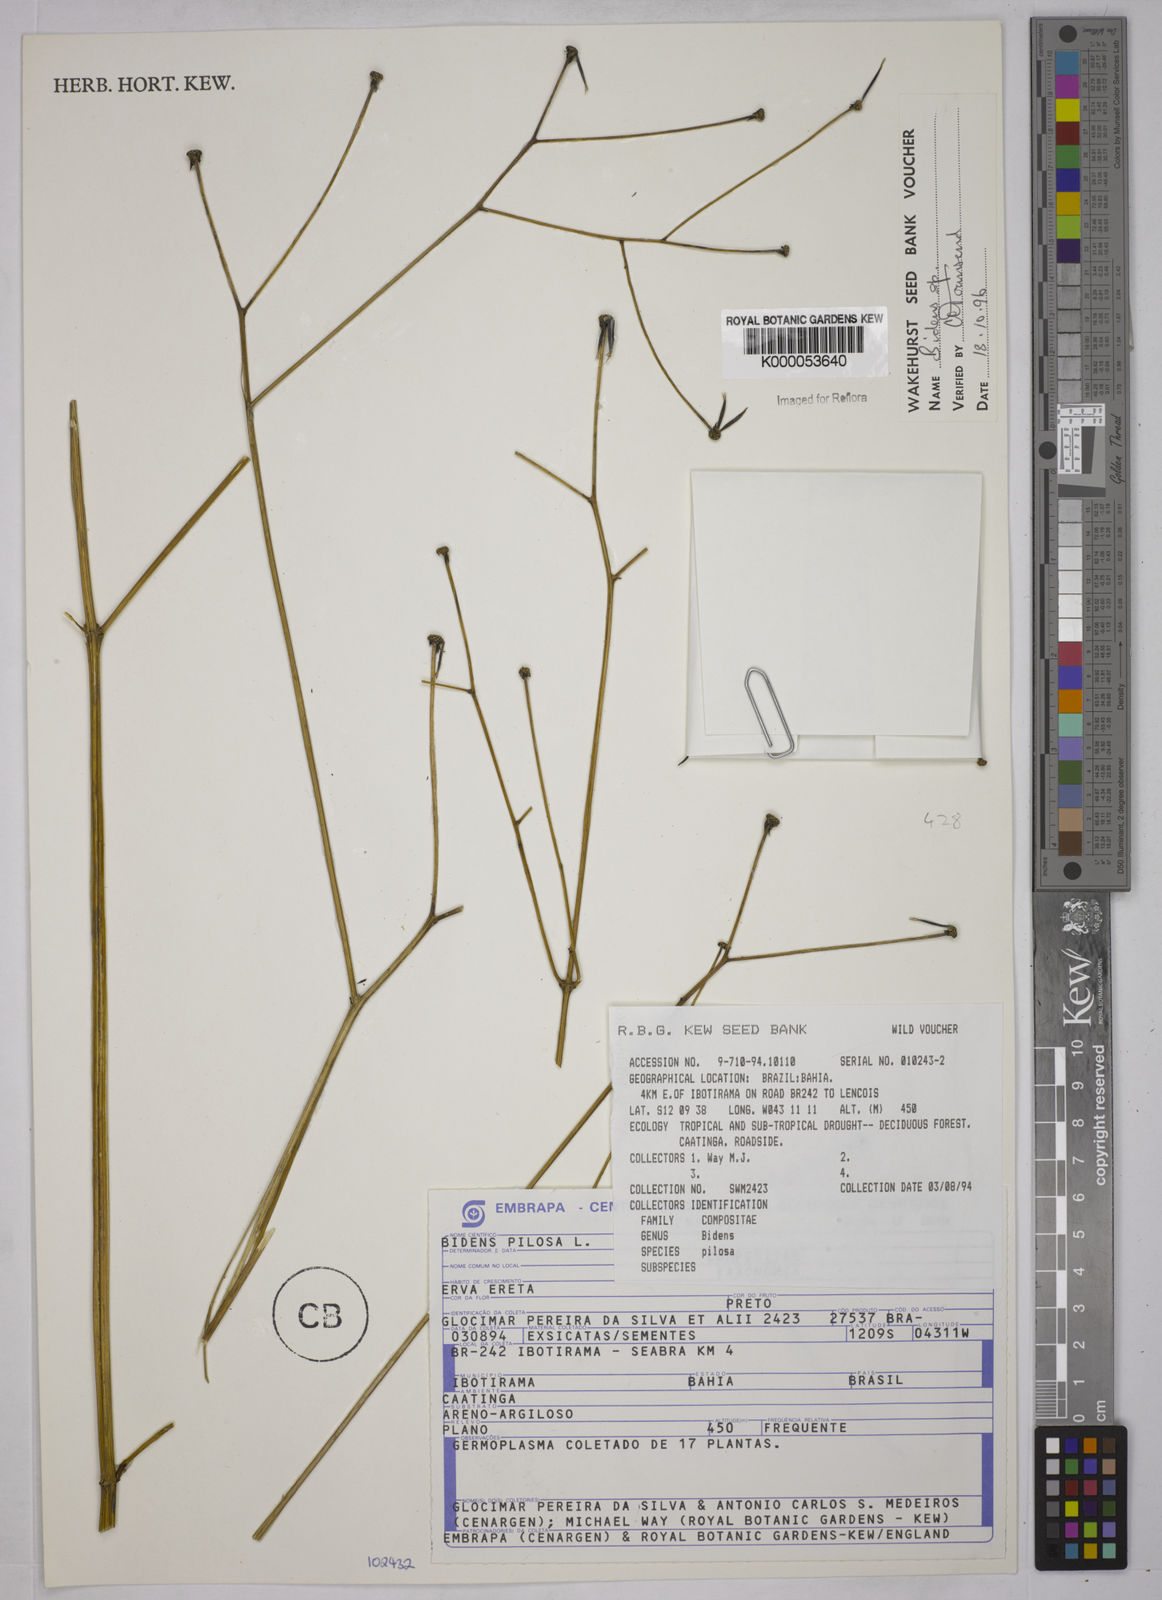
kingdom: Plantae
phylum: Tracheophyta
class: Magnoliopsida
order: Asterales
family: Asteraceae
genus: Bidens
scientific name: Bidens
